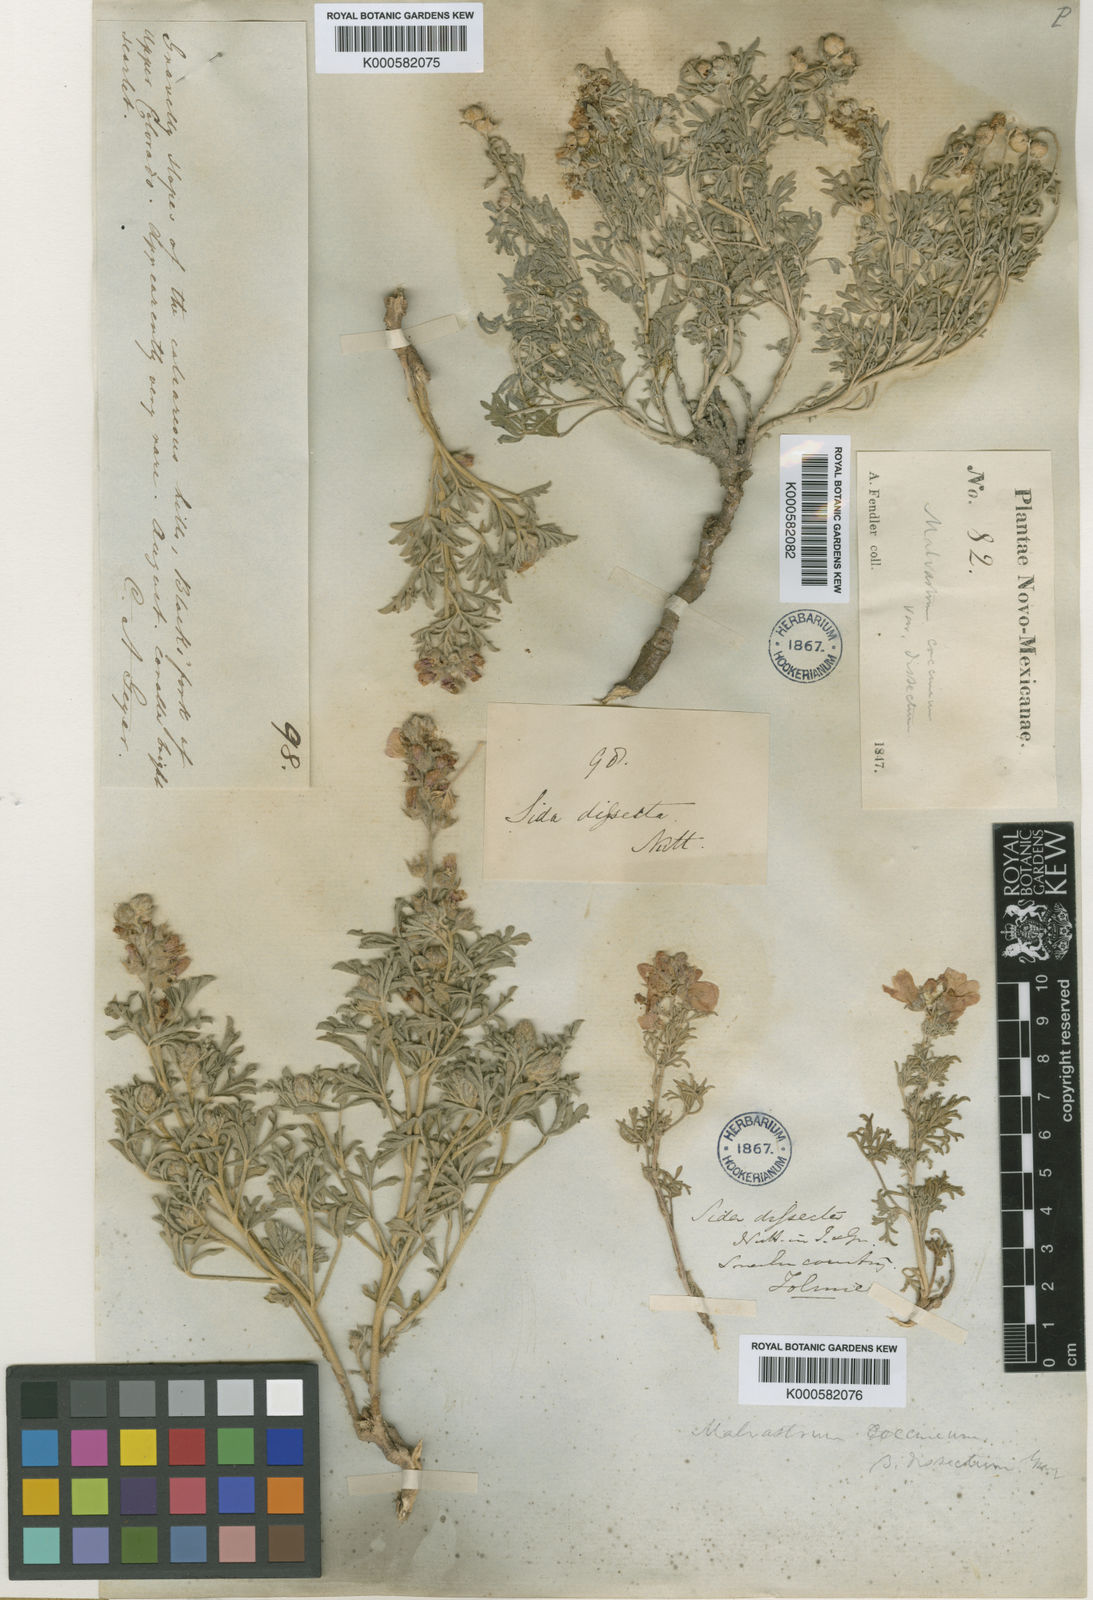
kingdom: Plantae
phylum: Tracheophyta
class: Magnoliopsida
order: Malvales
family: Malvaceae
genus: Sphaeralcea
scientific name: Sphaeralcea coccinea
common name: Moss-rose
